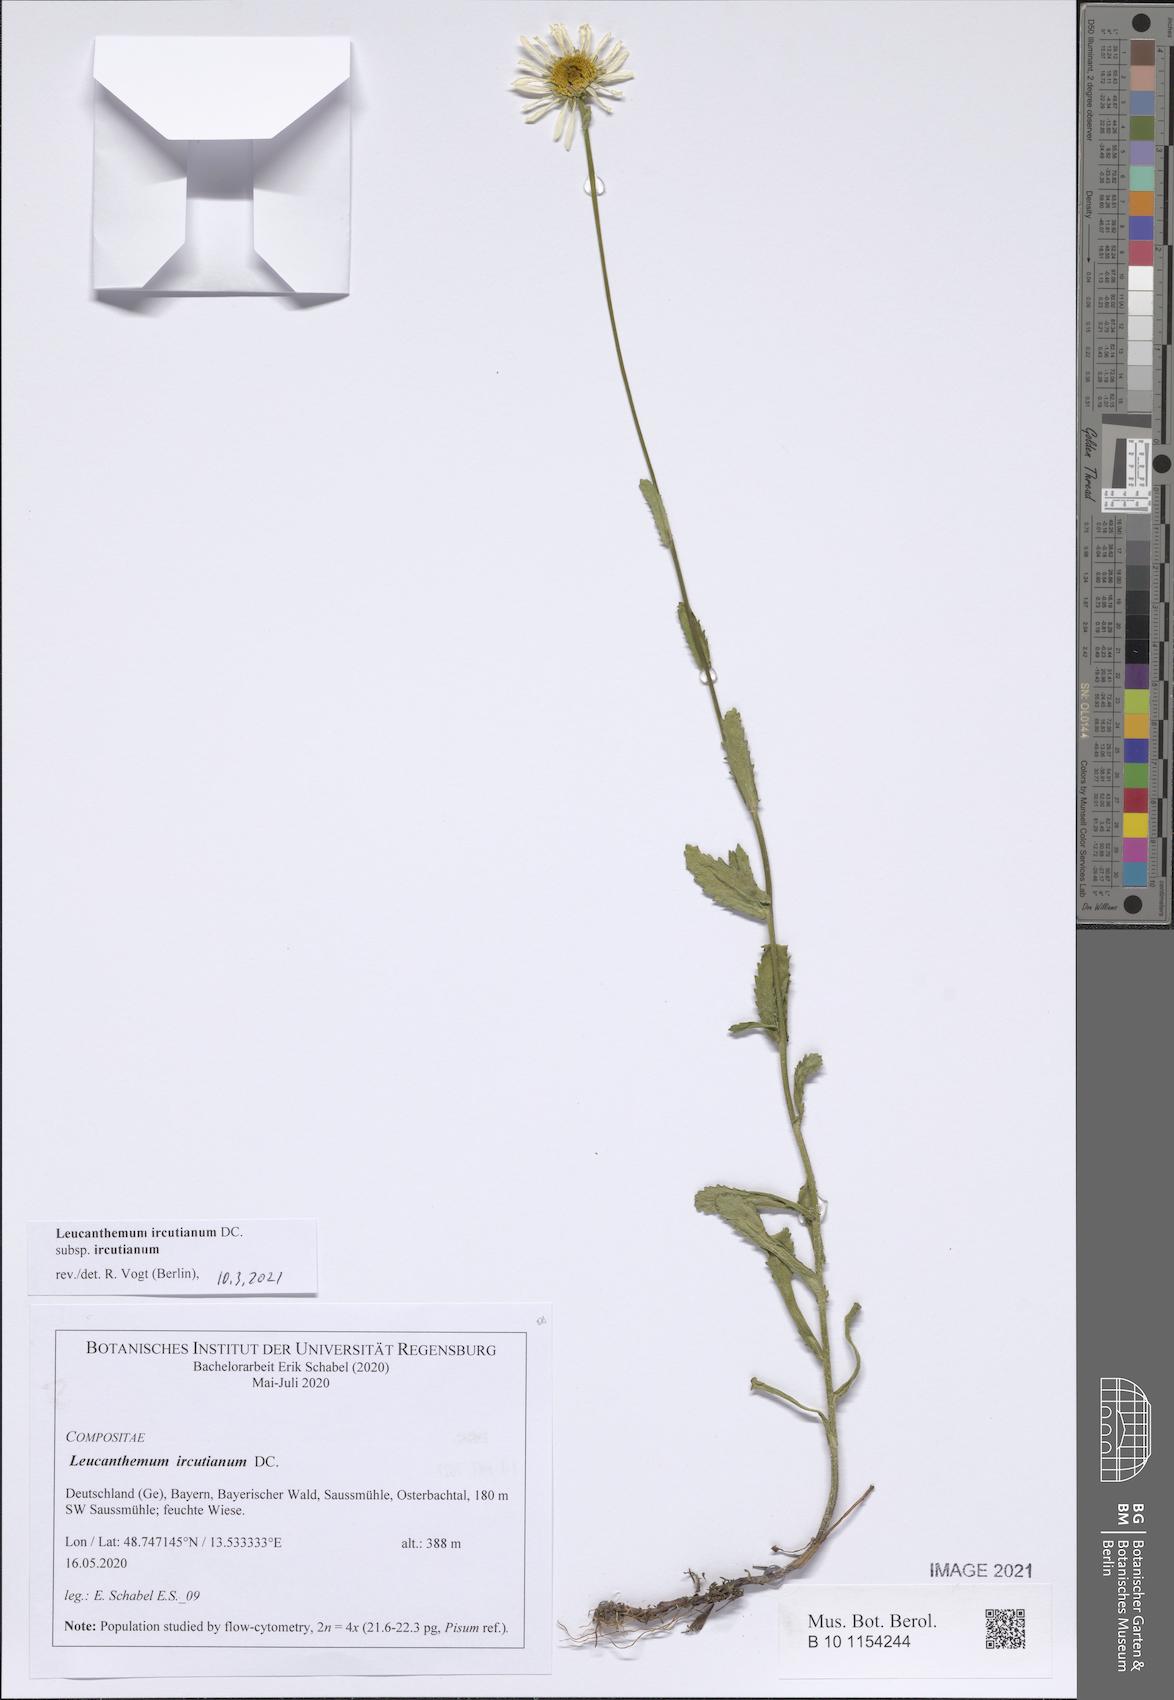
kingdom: Plantae
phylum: Tracheophyta
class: Magnoliopsida
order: Asterales
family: Asteraceae
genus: Leucanthemum
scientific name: Leucanthemum ircutianum
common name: Daisy
